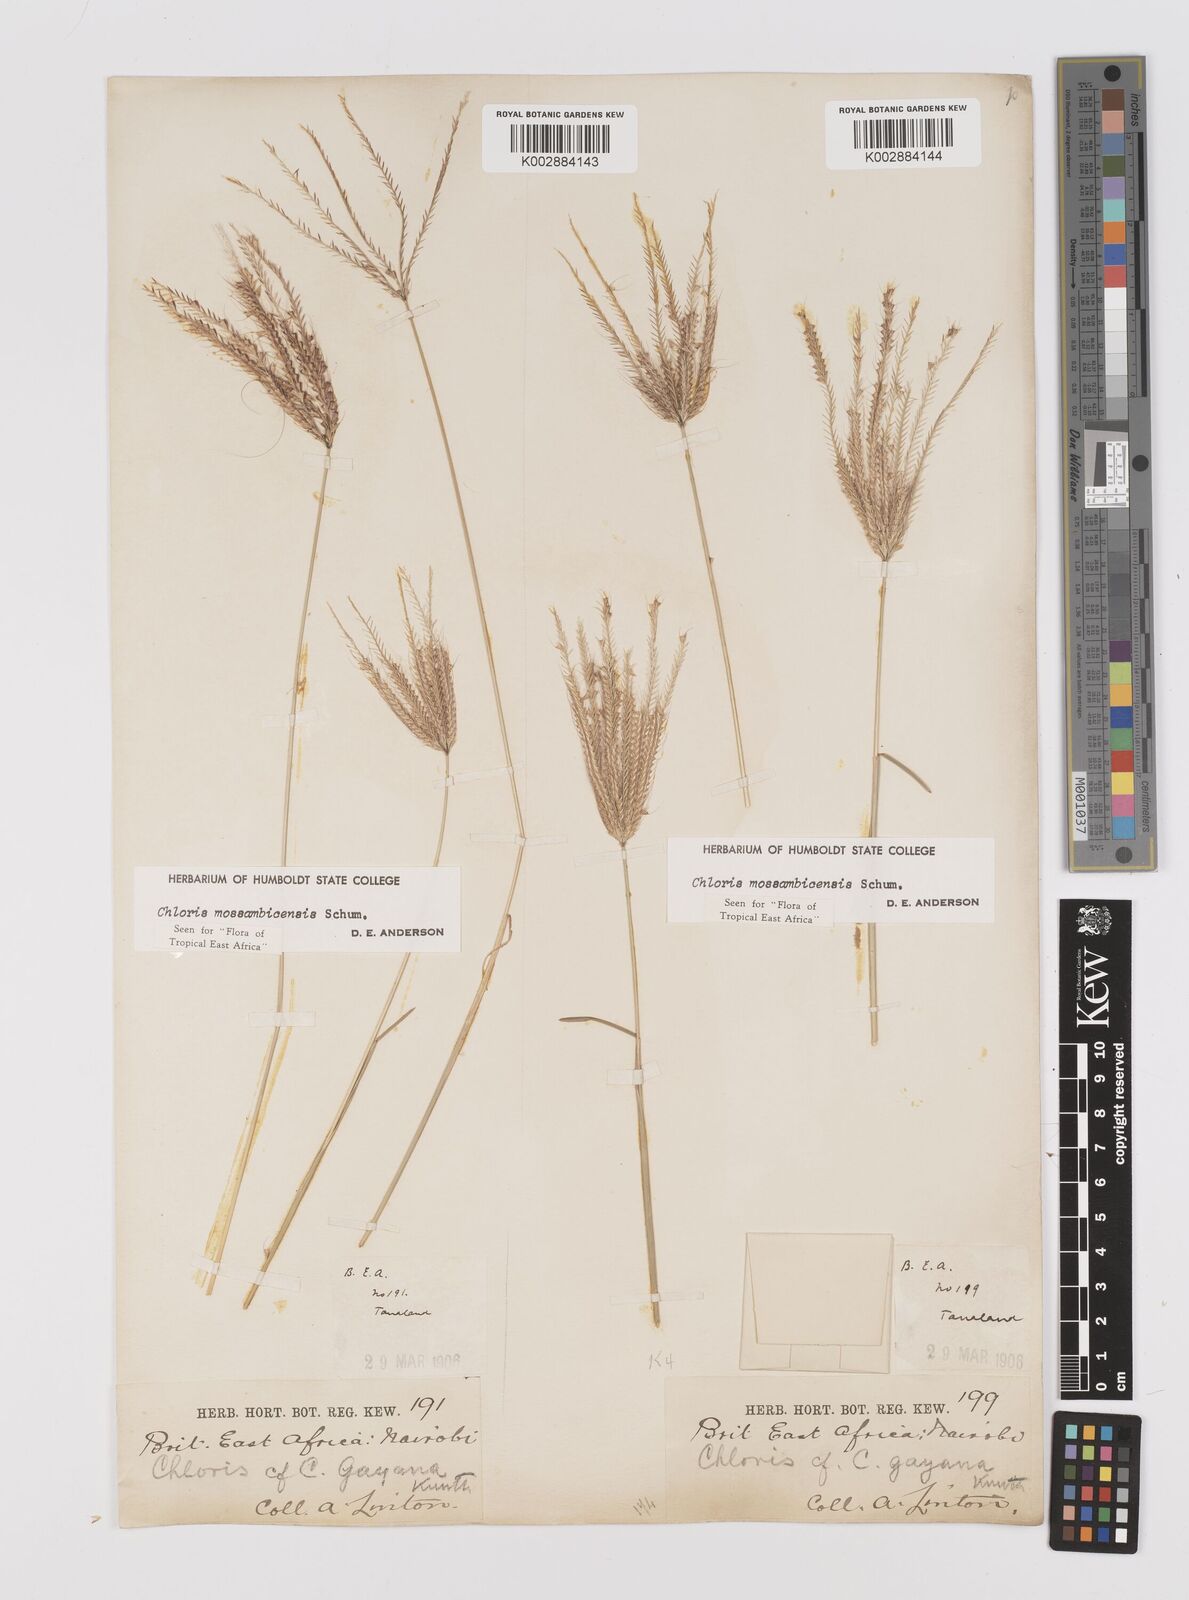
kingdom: Plantae
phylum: Tracheophyta
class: Liliopsida
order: Poales
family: Poaceae
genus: Chloris
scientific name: Chloris mossambicensis
